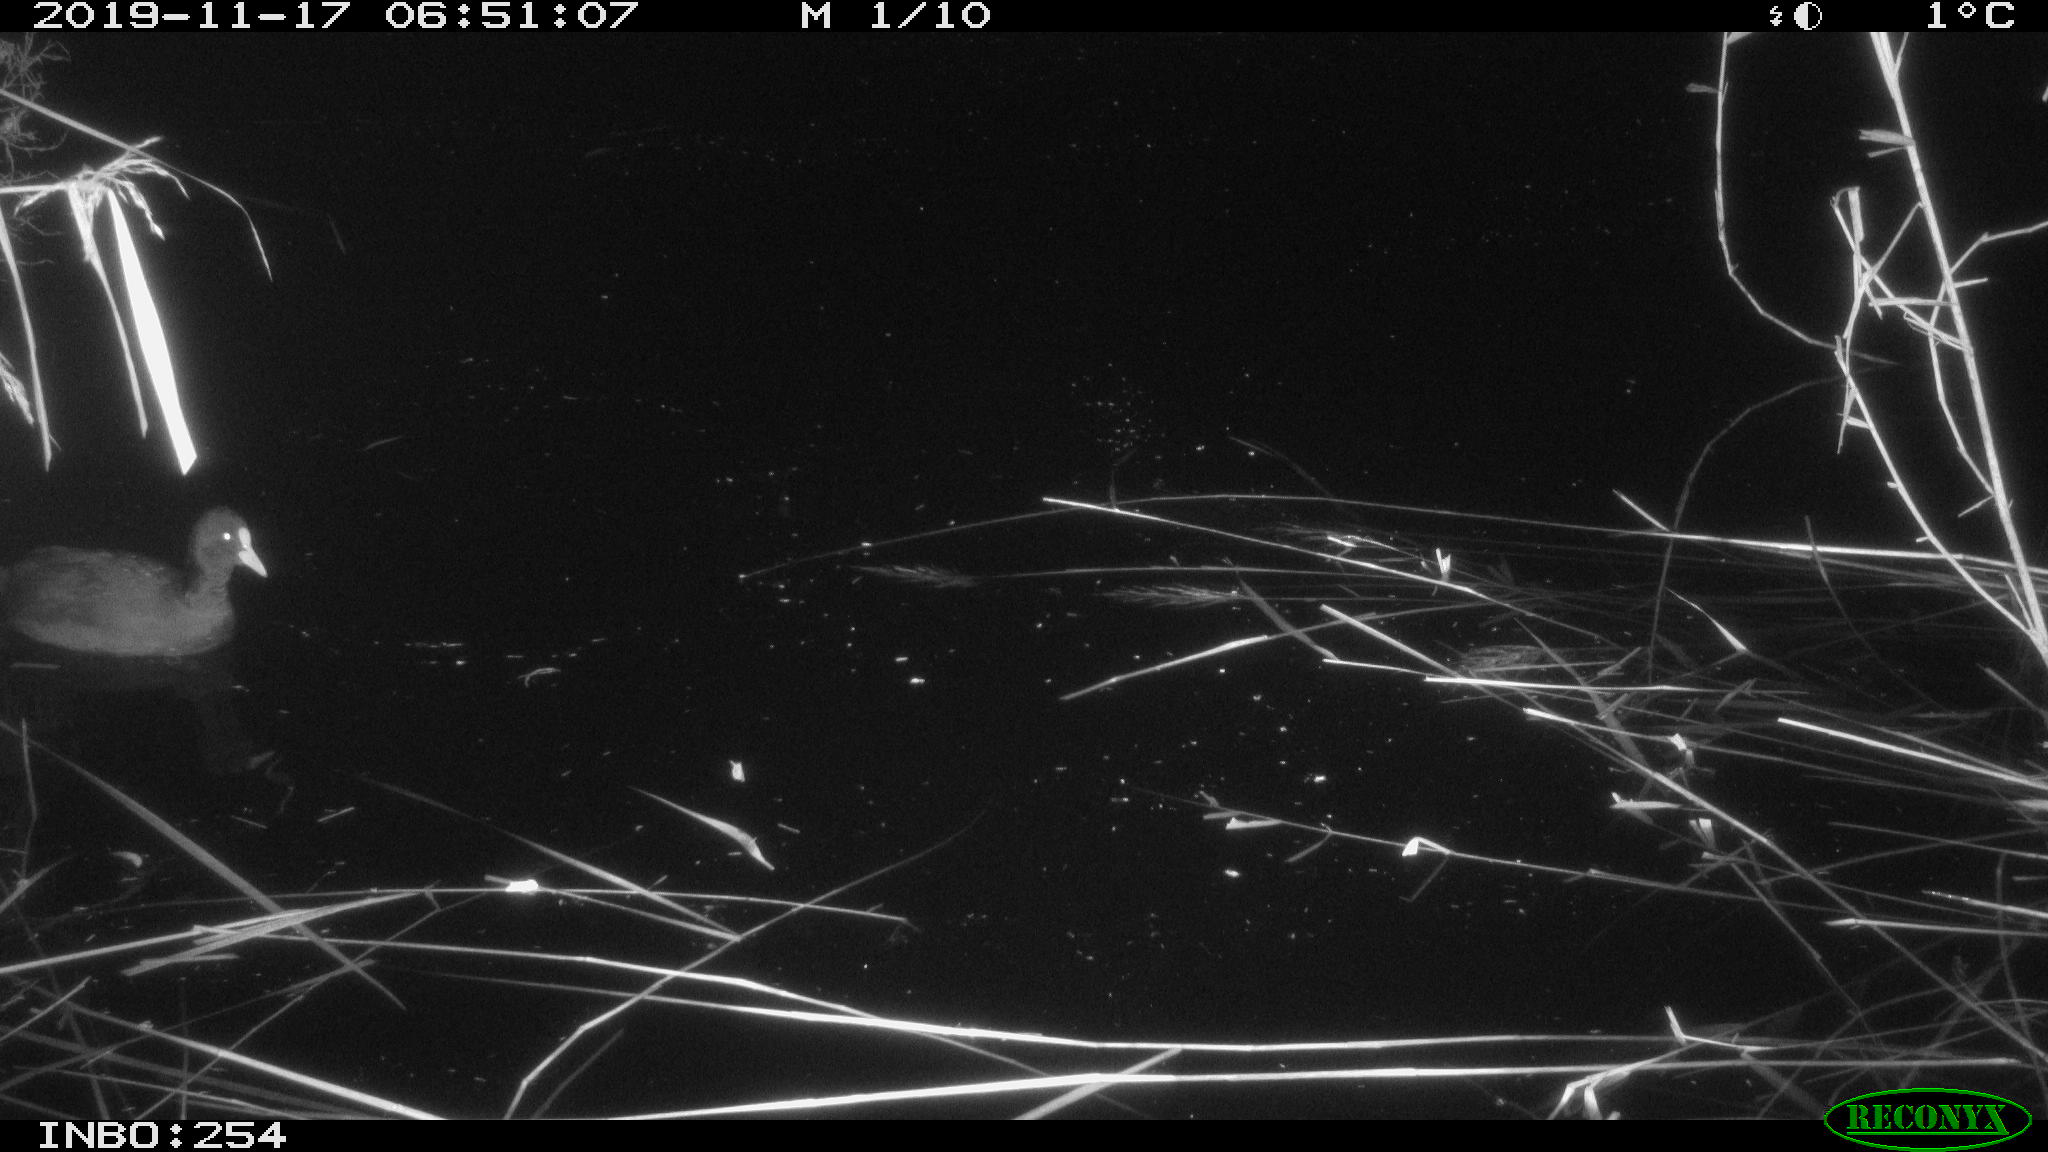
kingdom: Animalia
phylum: Chordata
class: Aves
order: Gruiformes
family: Rallidae
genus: Fulica
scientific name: Fulica atra
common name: Eurasian coot
